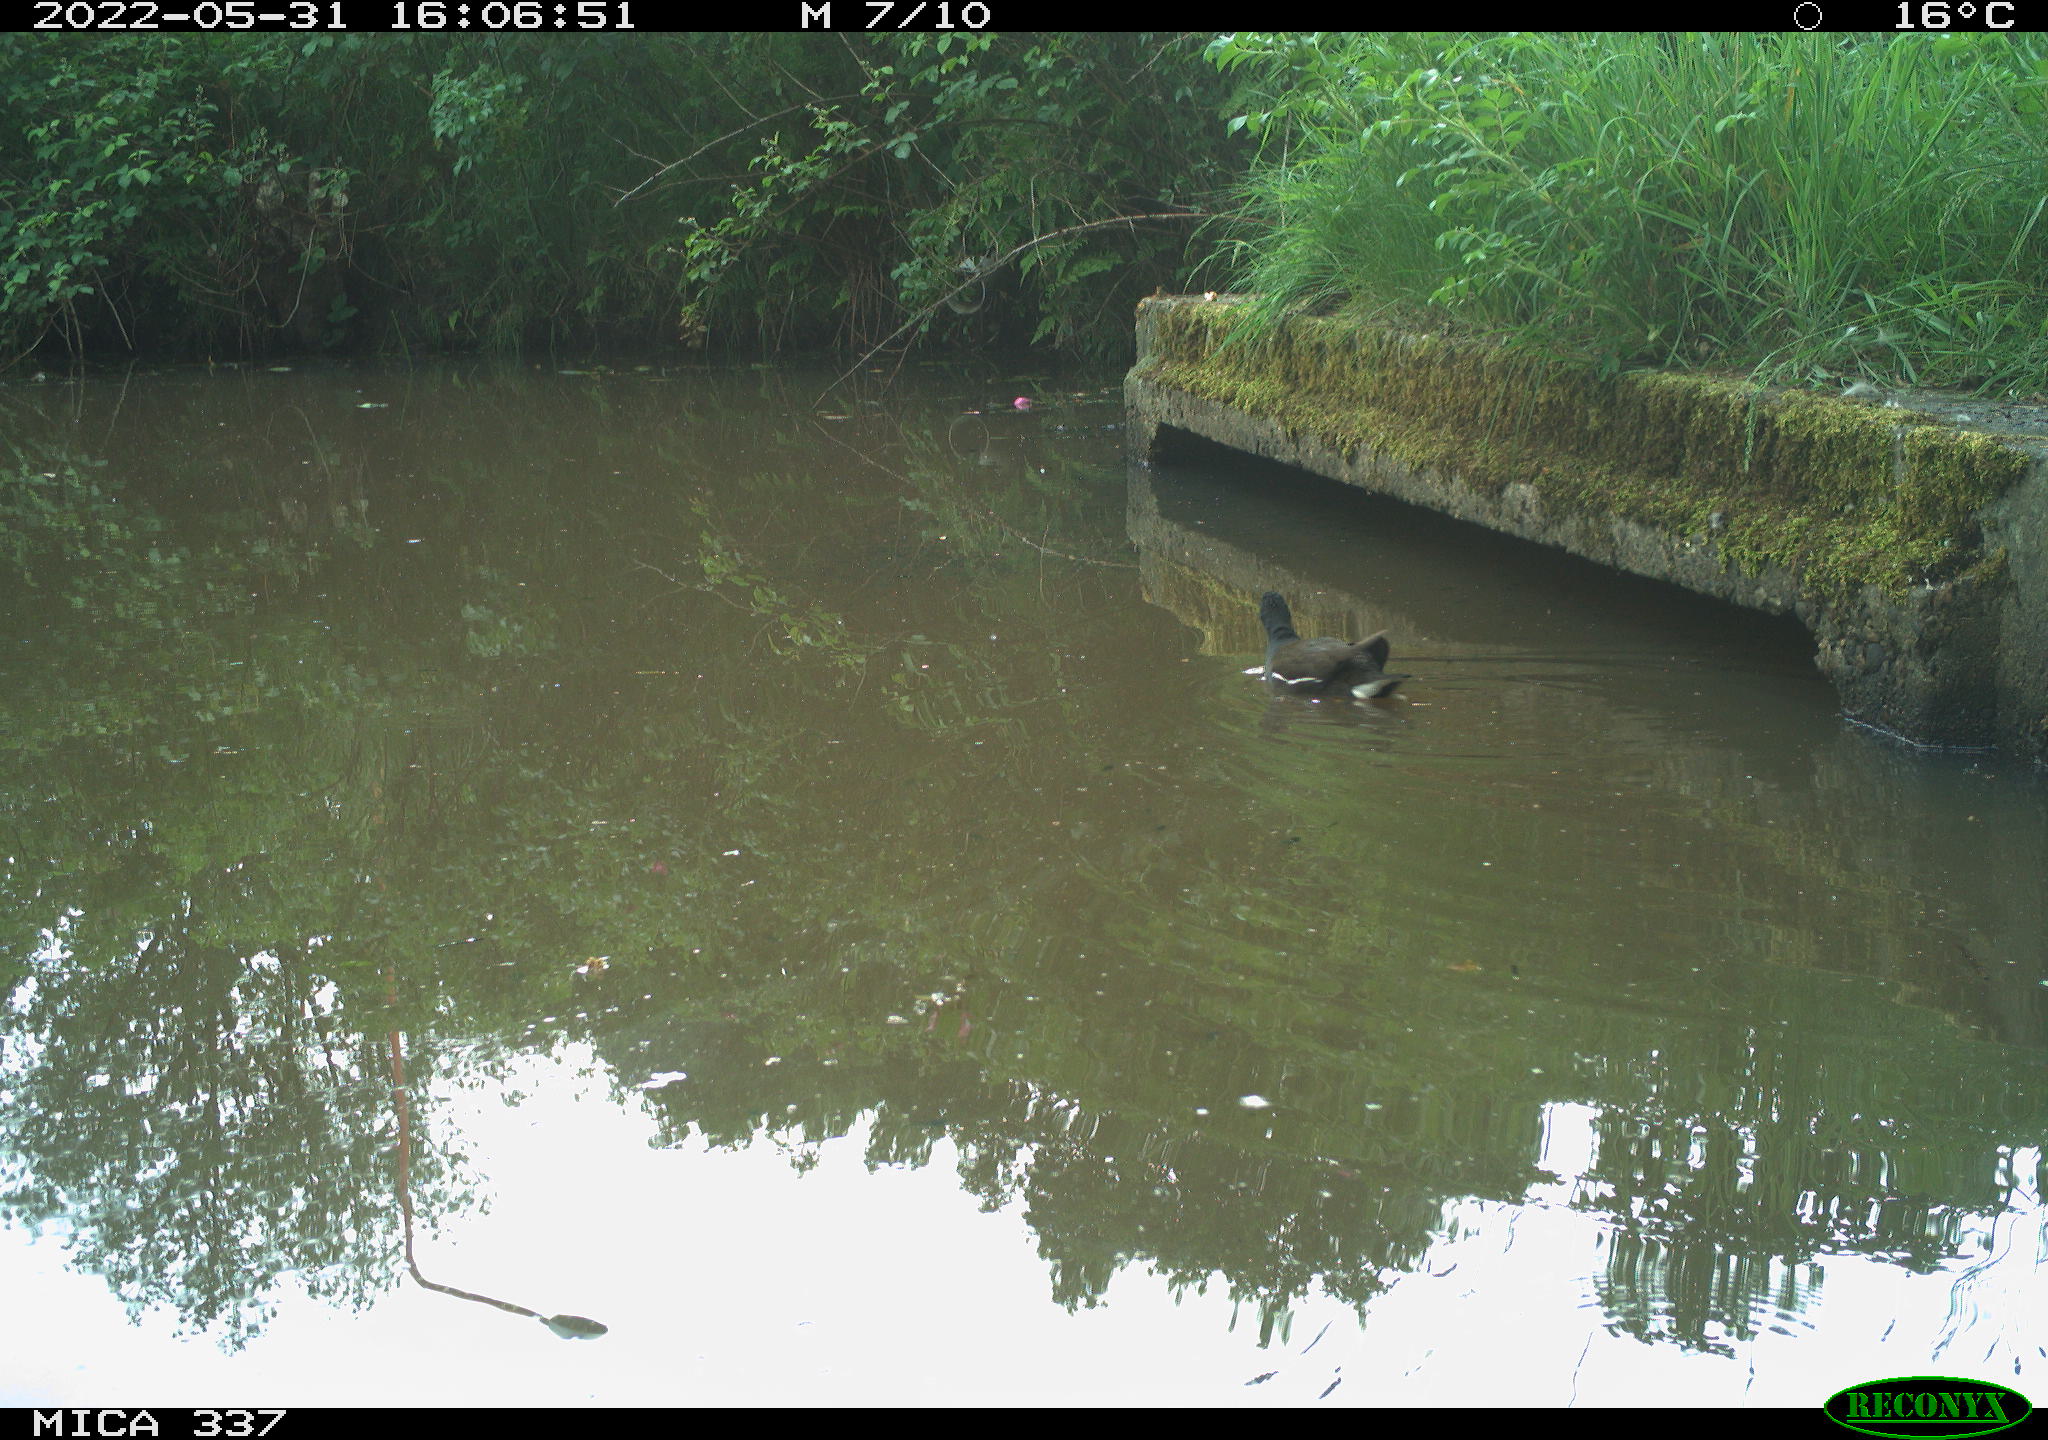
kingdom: Animalia
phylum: Chordata
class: Aves
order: Gruiformes
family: Rallidae
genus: Gallinula
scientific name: Gallinula chloropus
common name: Common moorhen
